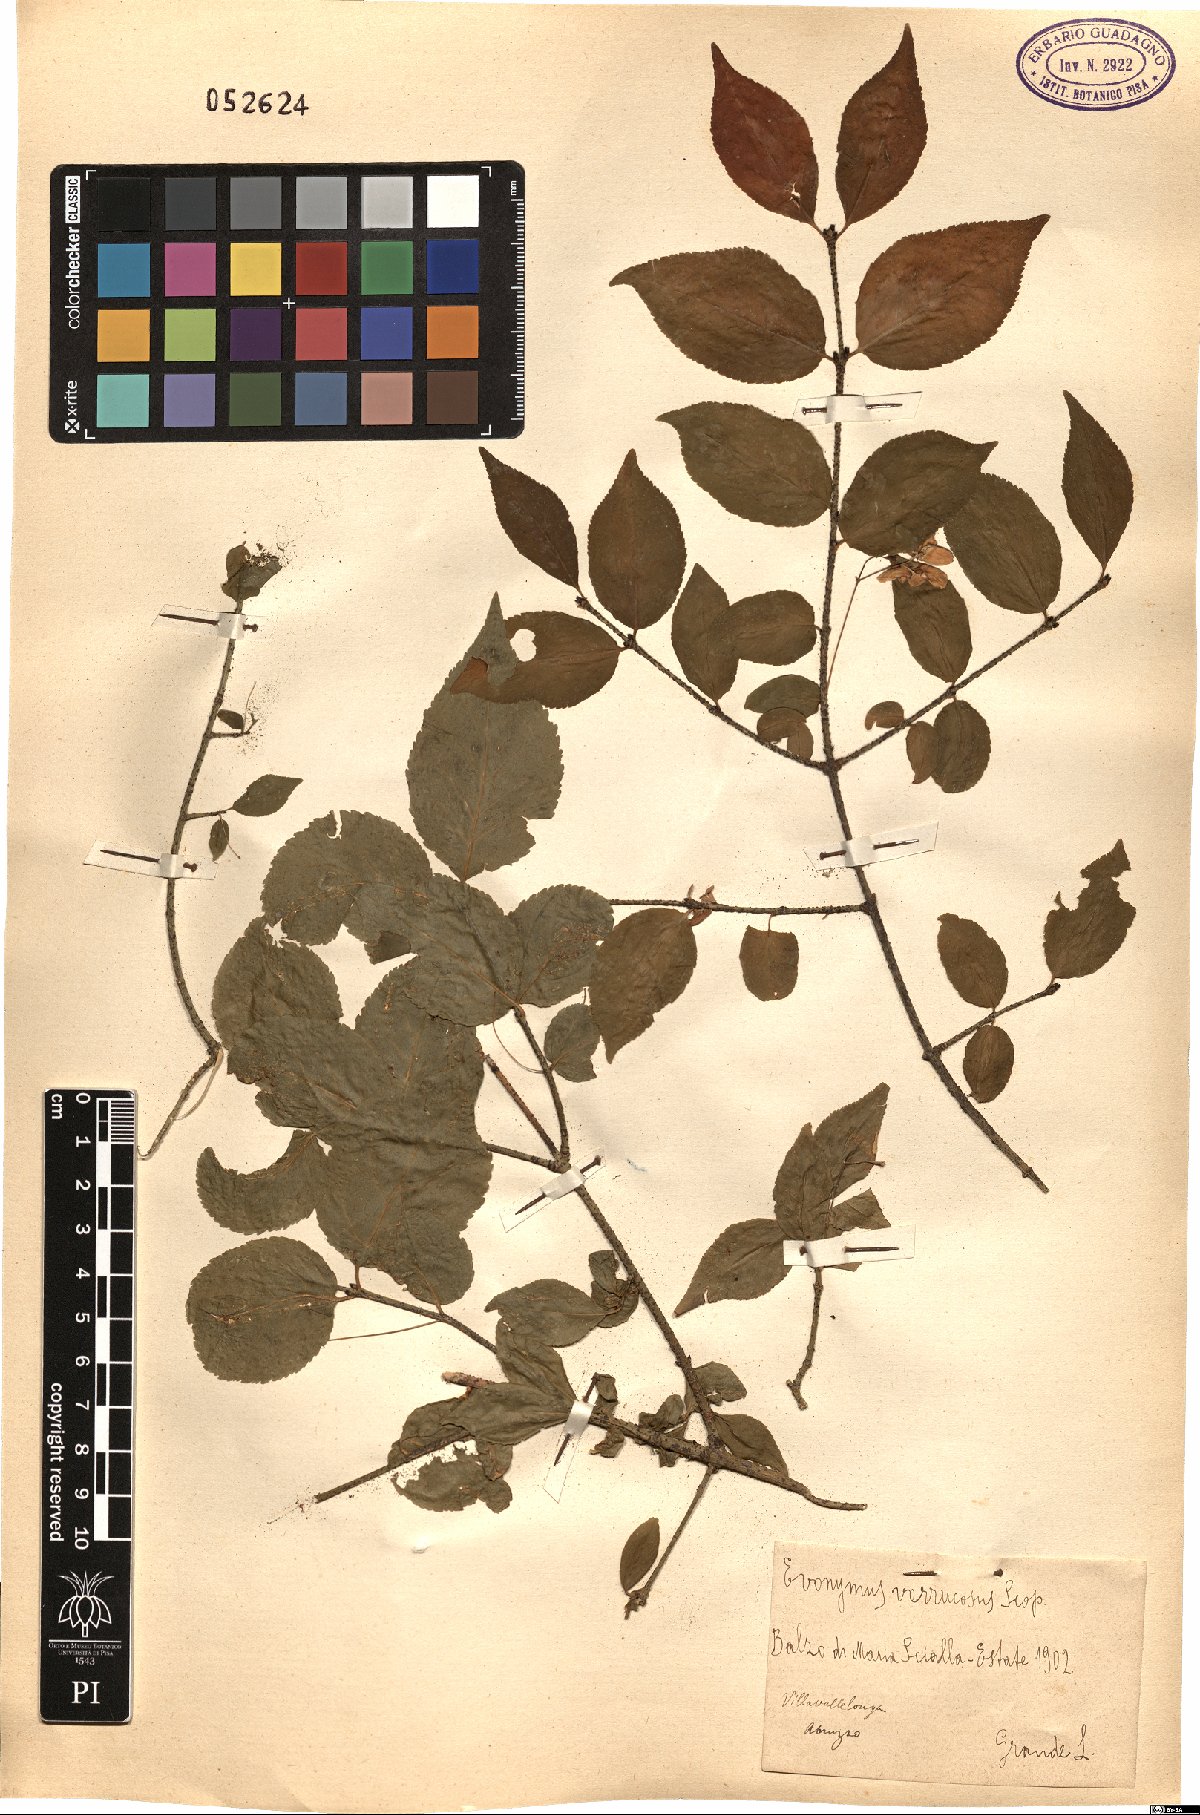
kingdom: Plantae
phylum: Tracheophyta
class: Magnoliopsida
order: Celastrales
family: Celastraceae
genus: Euonymus
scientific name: Euonymus verrucosus
